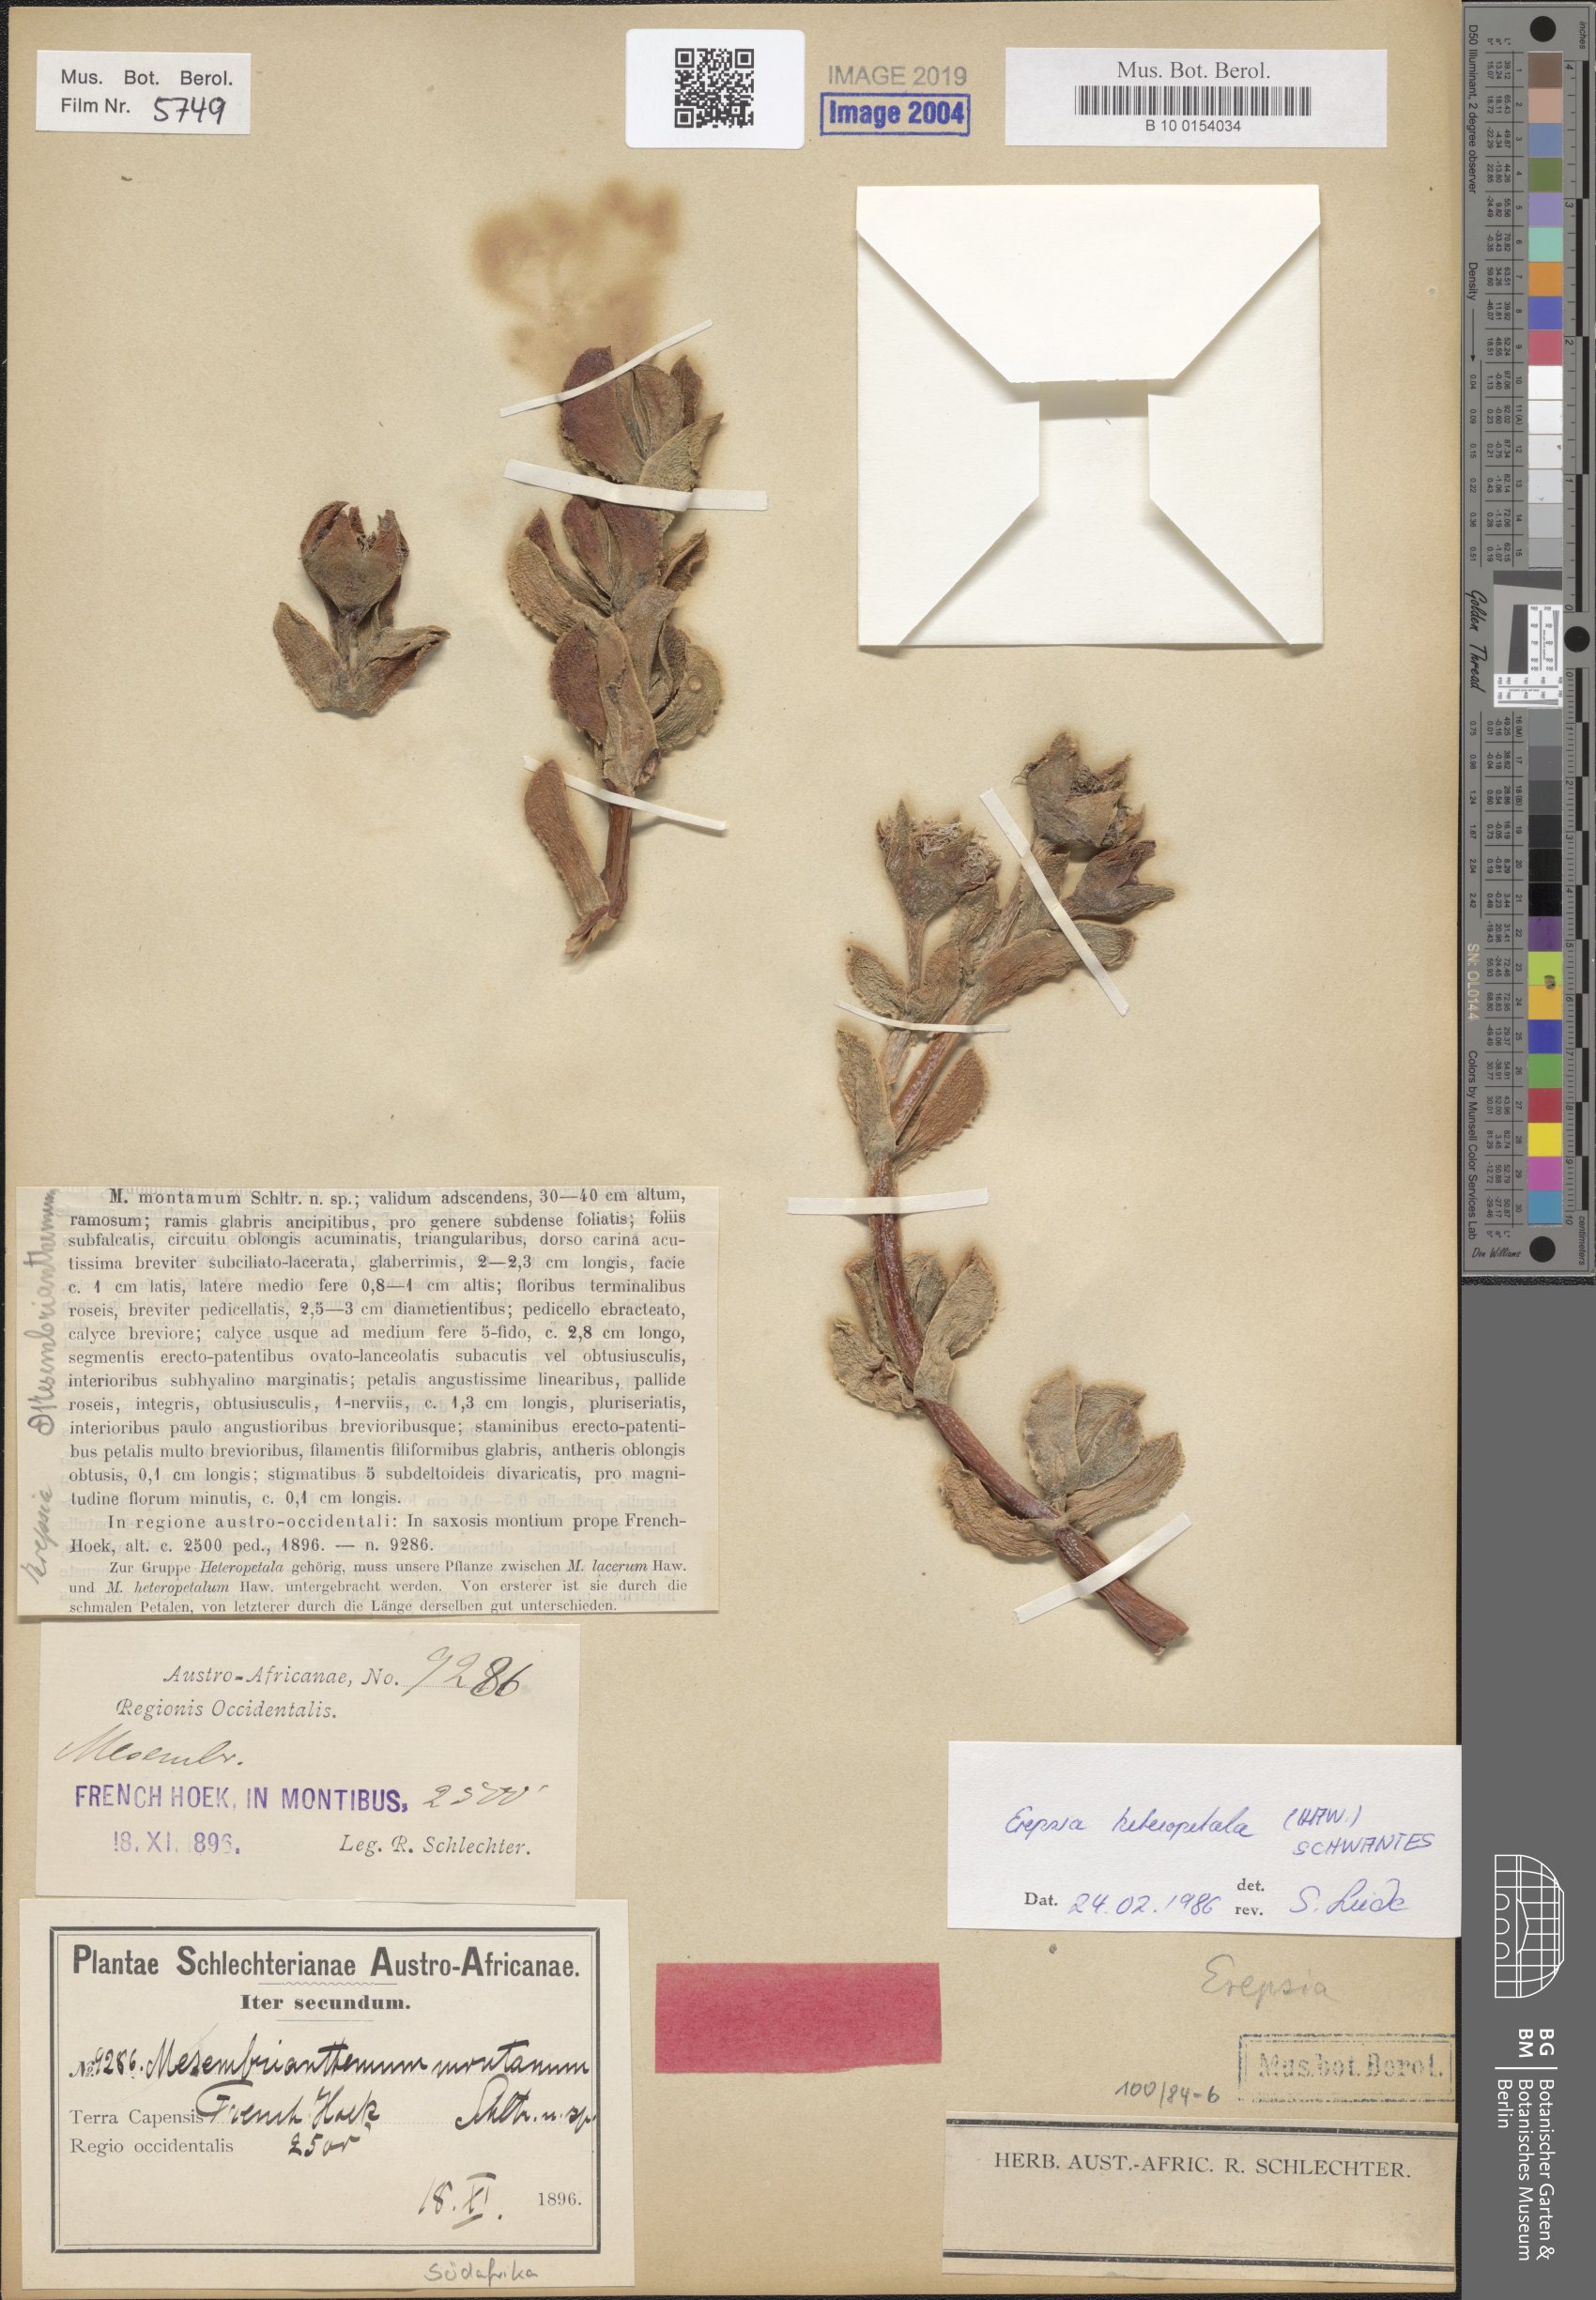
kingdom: Plantae
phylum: Tracheophyta
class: Magnoliopsida
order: Caryophyllales
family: Aizoaceae
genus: Erepsia
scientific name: Erepsia heteropetala
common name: Lesser sea-fig
